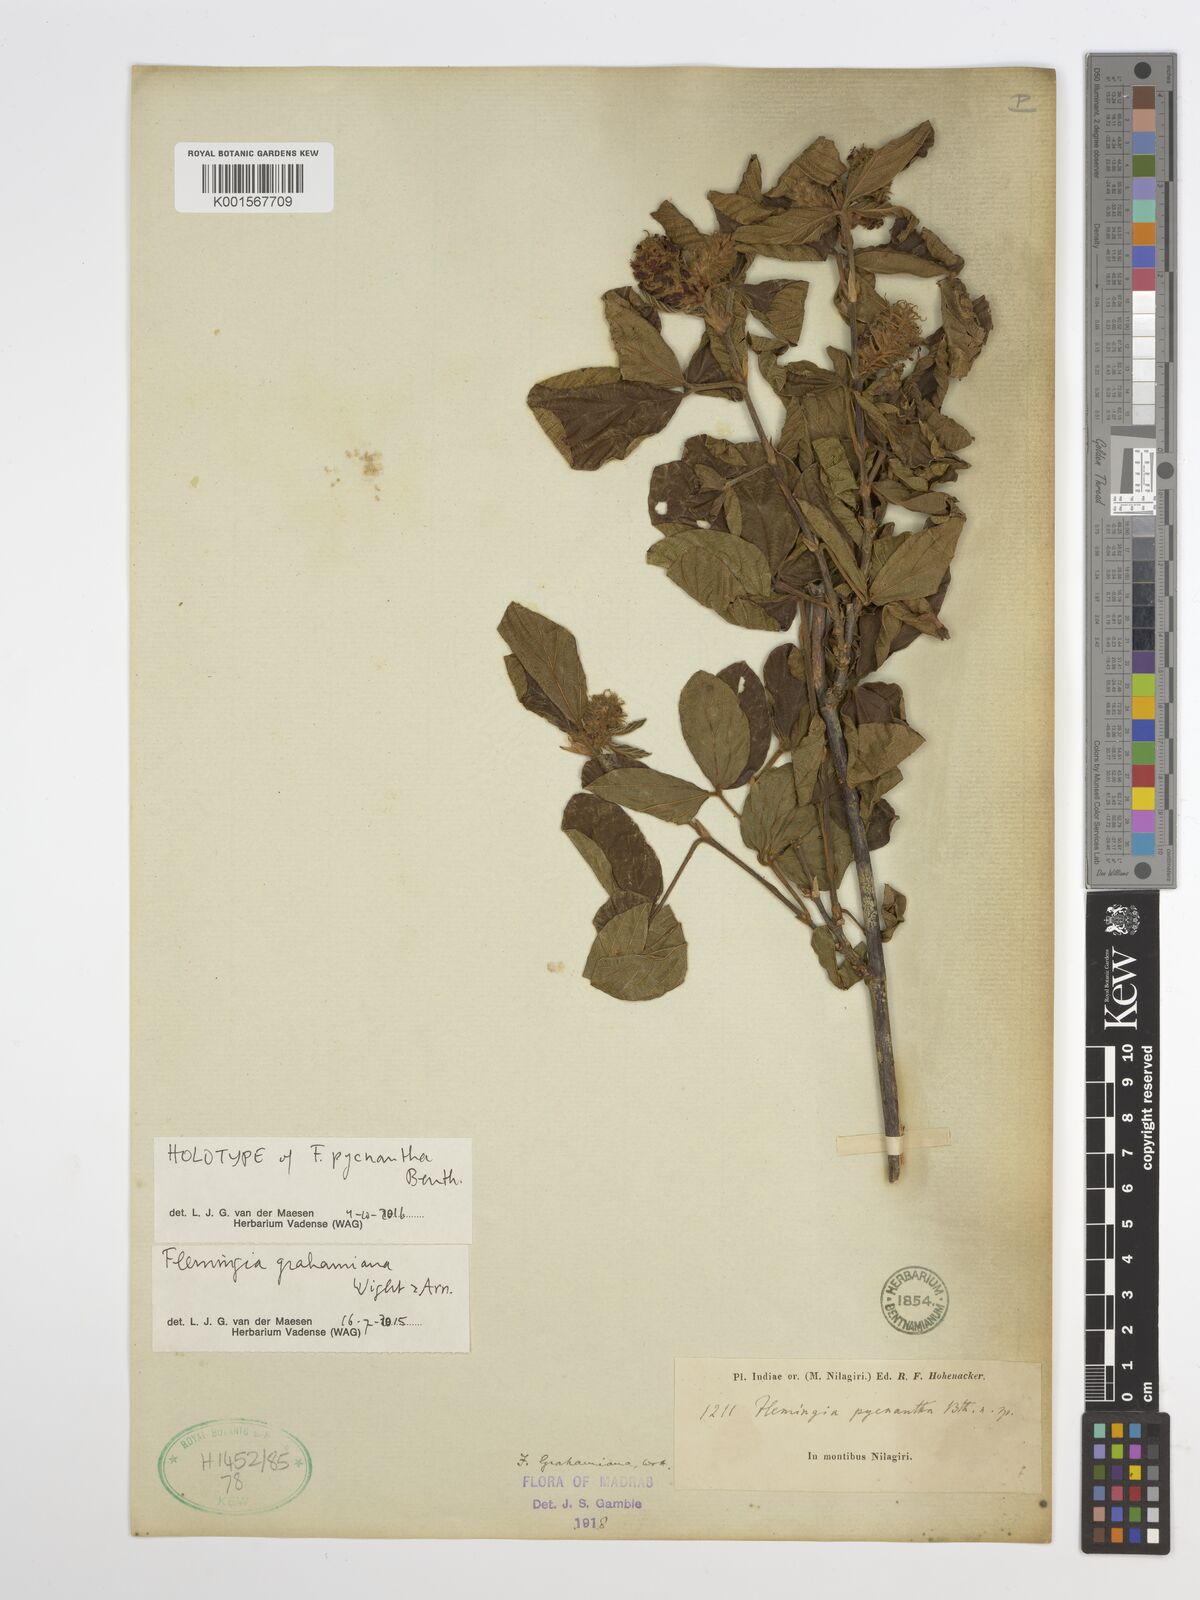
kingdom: Plantae
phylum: Tracheophyta
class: Magnoliopsida
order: Fabales
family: Fabaceae
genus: Flemingia
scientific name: Flemingia grahamiana
